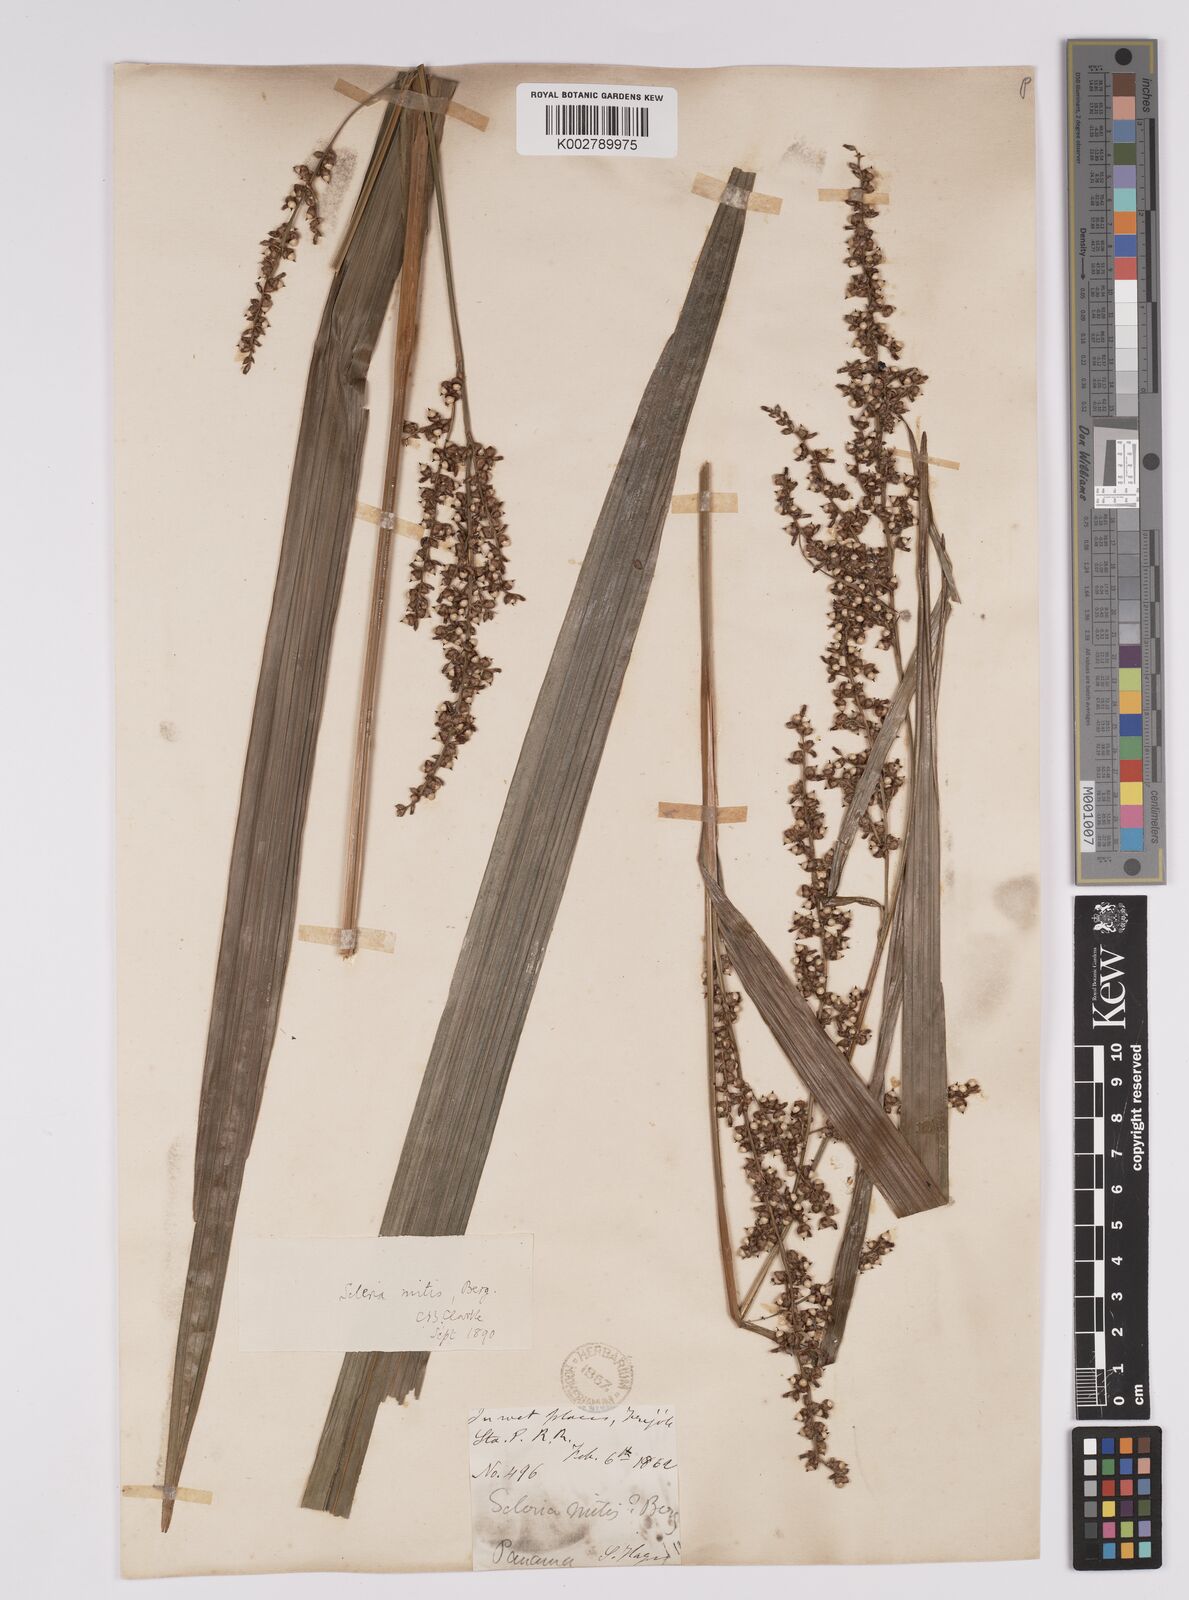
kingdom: Plantae
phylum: Tracheophyta
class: Liliopsida
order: Poales
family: Cyperaceae
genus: Scleria
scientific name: Scleria mitis
